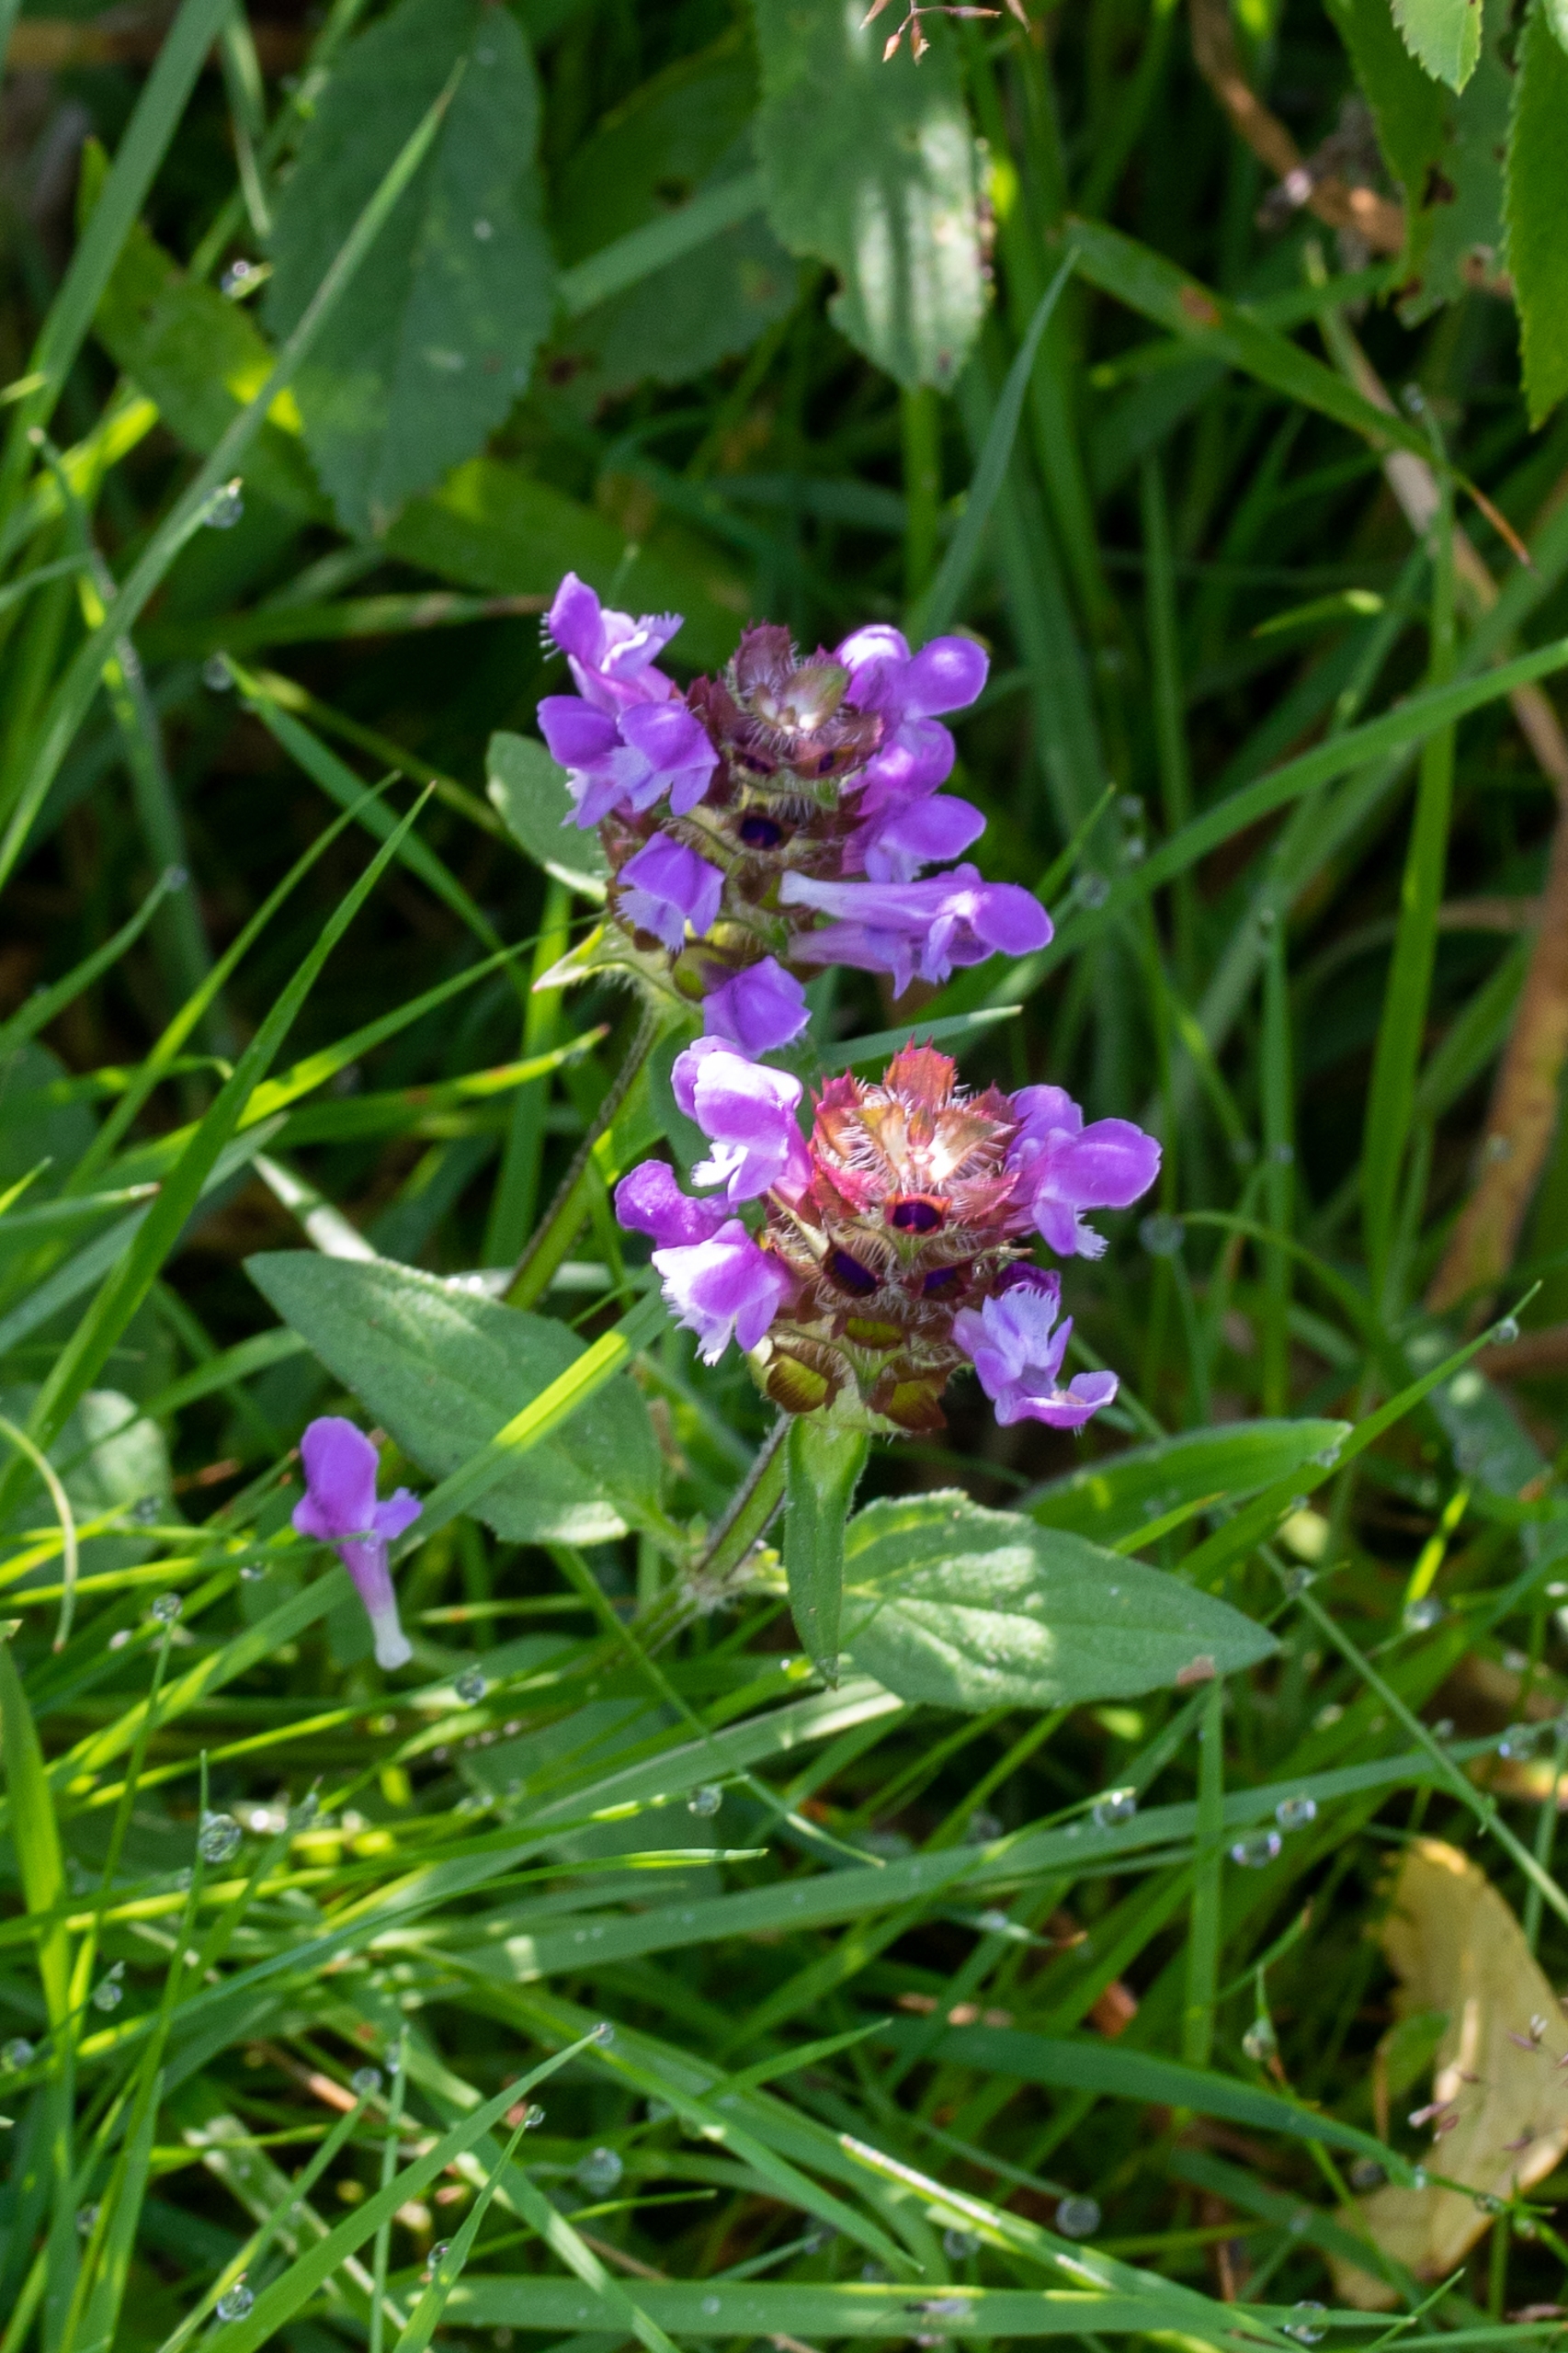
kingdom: Plantae
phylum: Tracheophyta
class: Magnoliopsida
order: Lamiales
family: Lamiaceae
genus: Prunella
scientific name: Prunella vulgaris
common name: Almindelig brunelle
